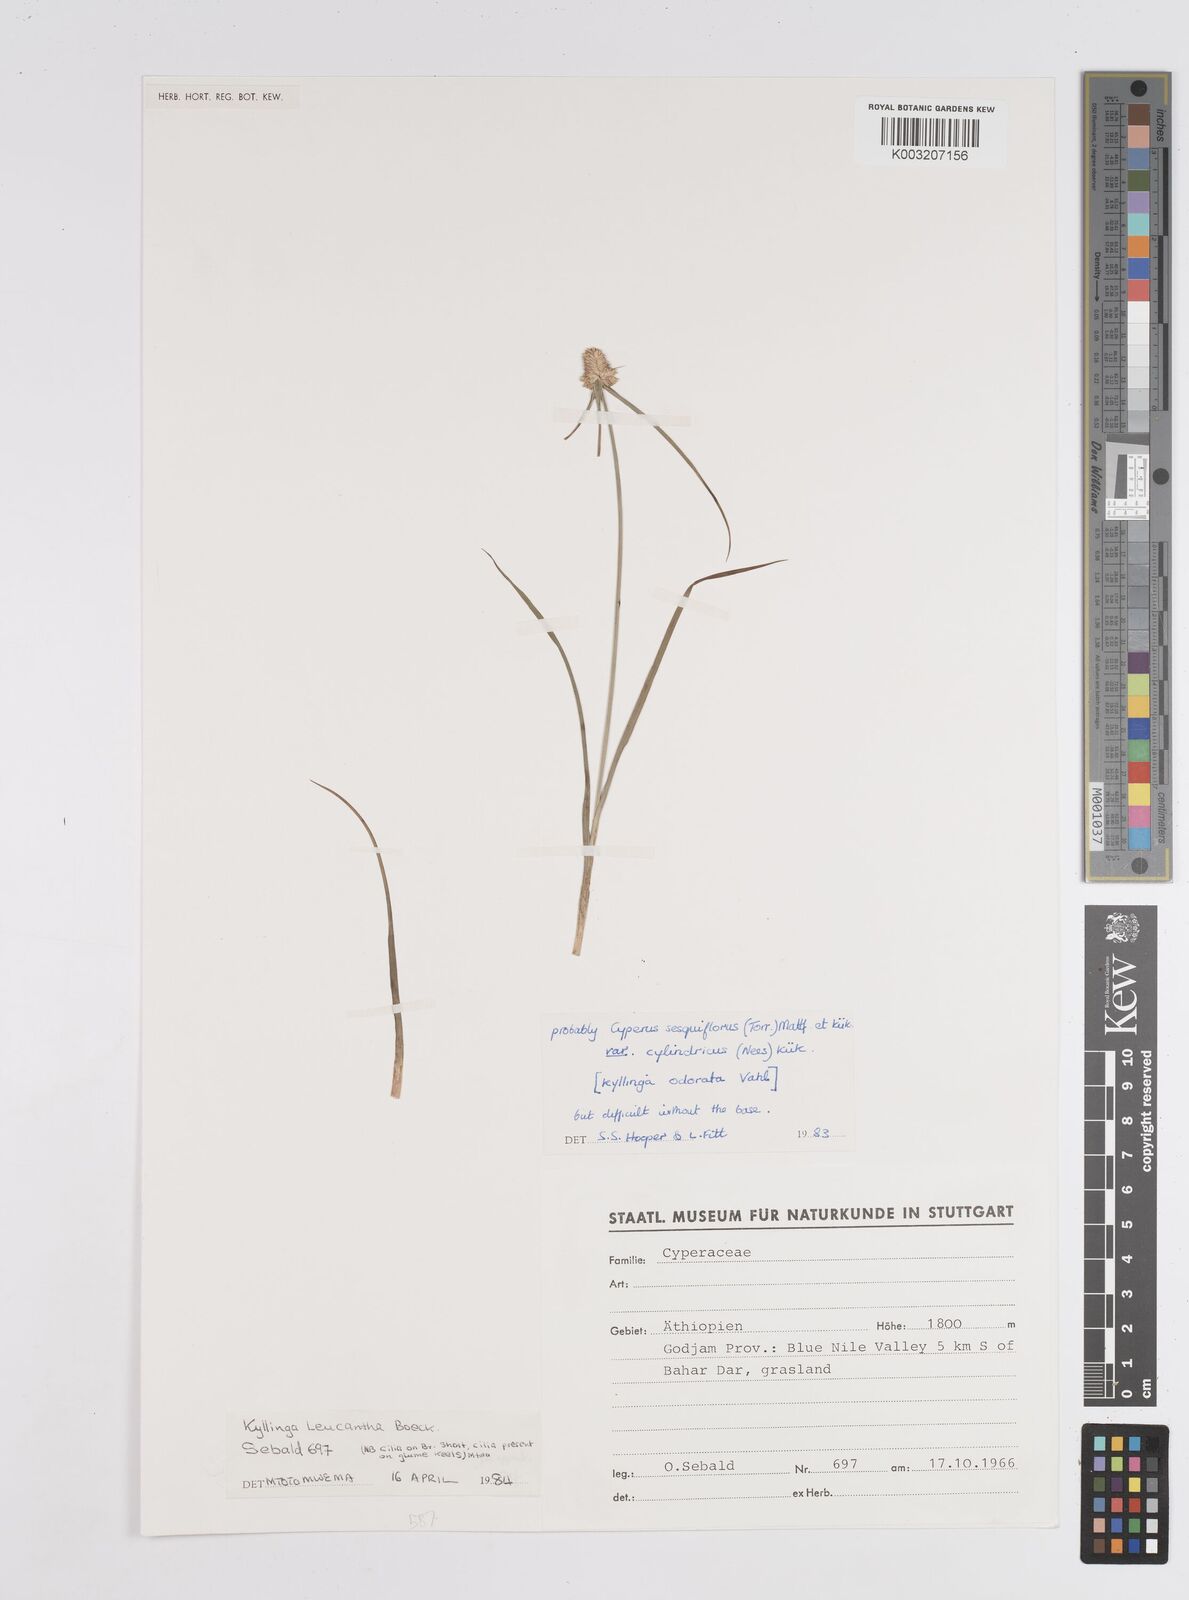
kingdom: Plantae
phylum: Tracheophyta
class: Liliopsida
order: Poales
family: Cyperaceae
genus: Cyperus
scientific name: Cyperus sesquiflorus
